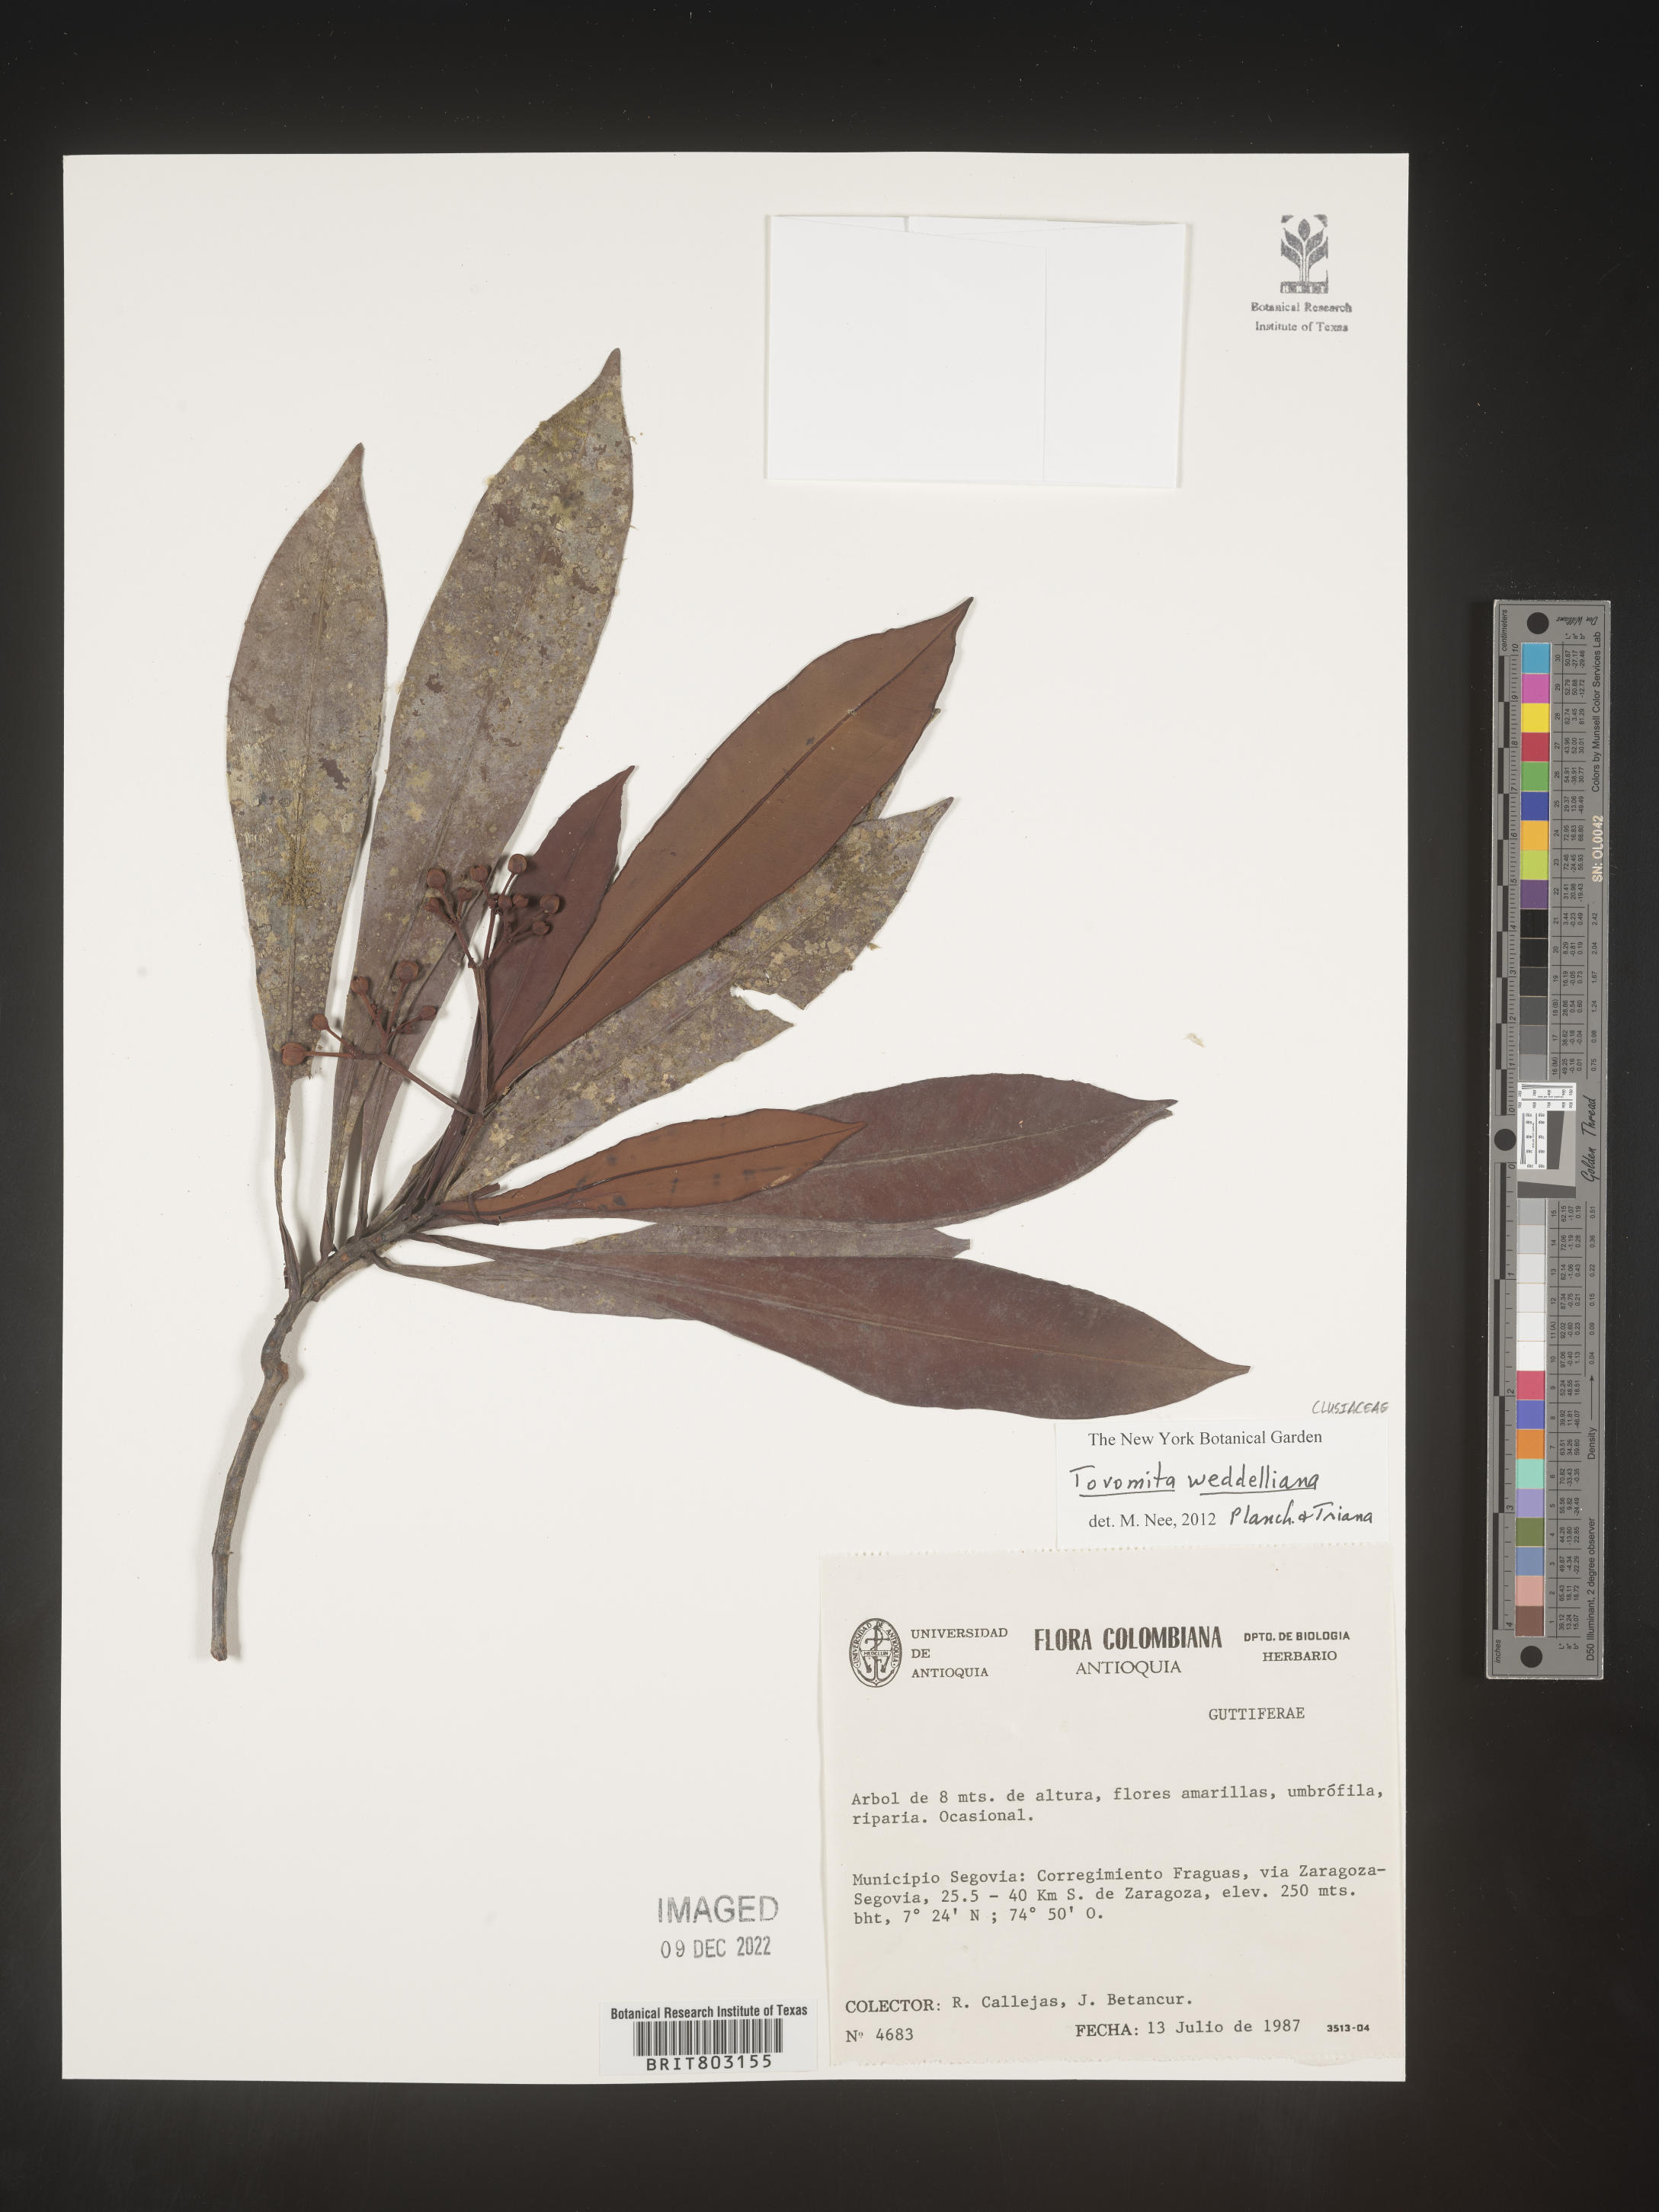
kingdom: Plantae
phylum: Tracheophyta
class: Magnoliopsida
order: Malpighiales
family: Clusiaceae
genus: Arawakia
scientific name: Arawakia weddelliana
